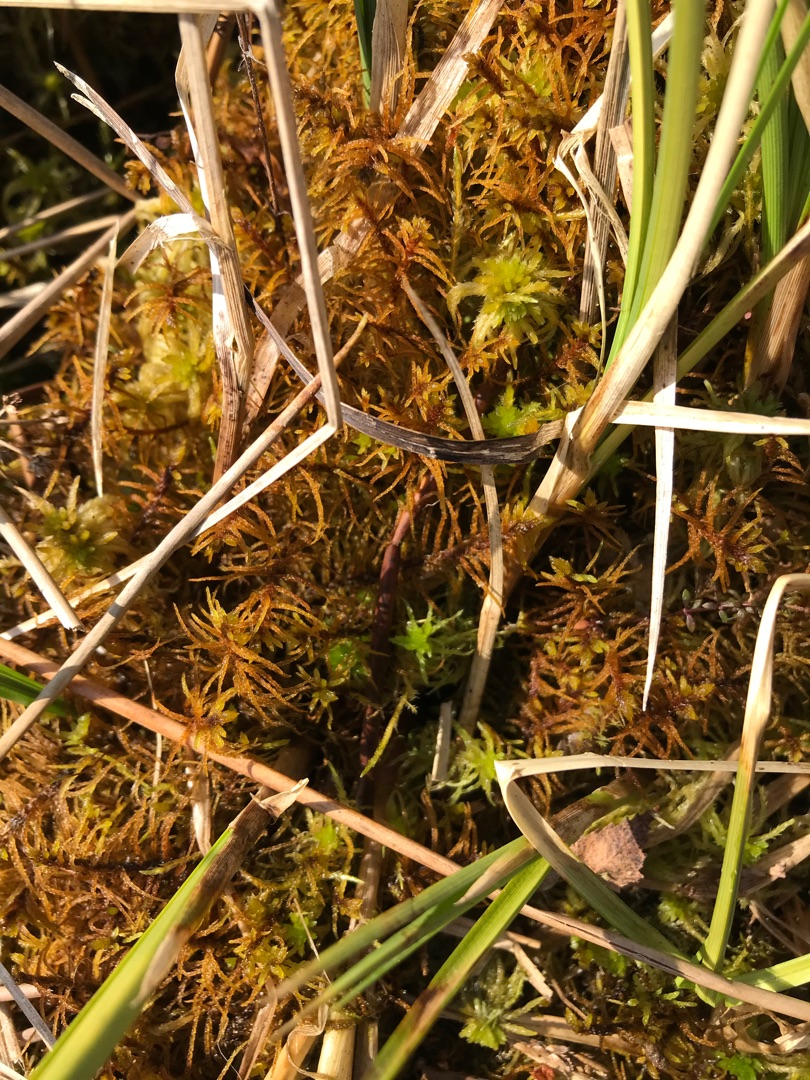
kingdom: Plantae
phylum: Bryophyta
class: Bryopsida
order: Hypnales
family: Helodiaceae
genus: Helodium
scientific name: Helodium blandowii
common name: Kær-gyldenmos
